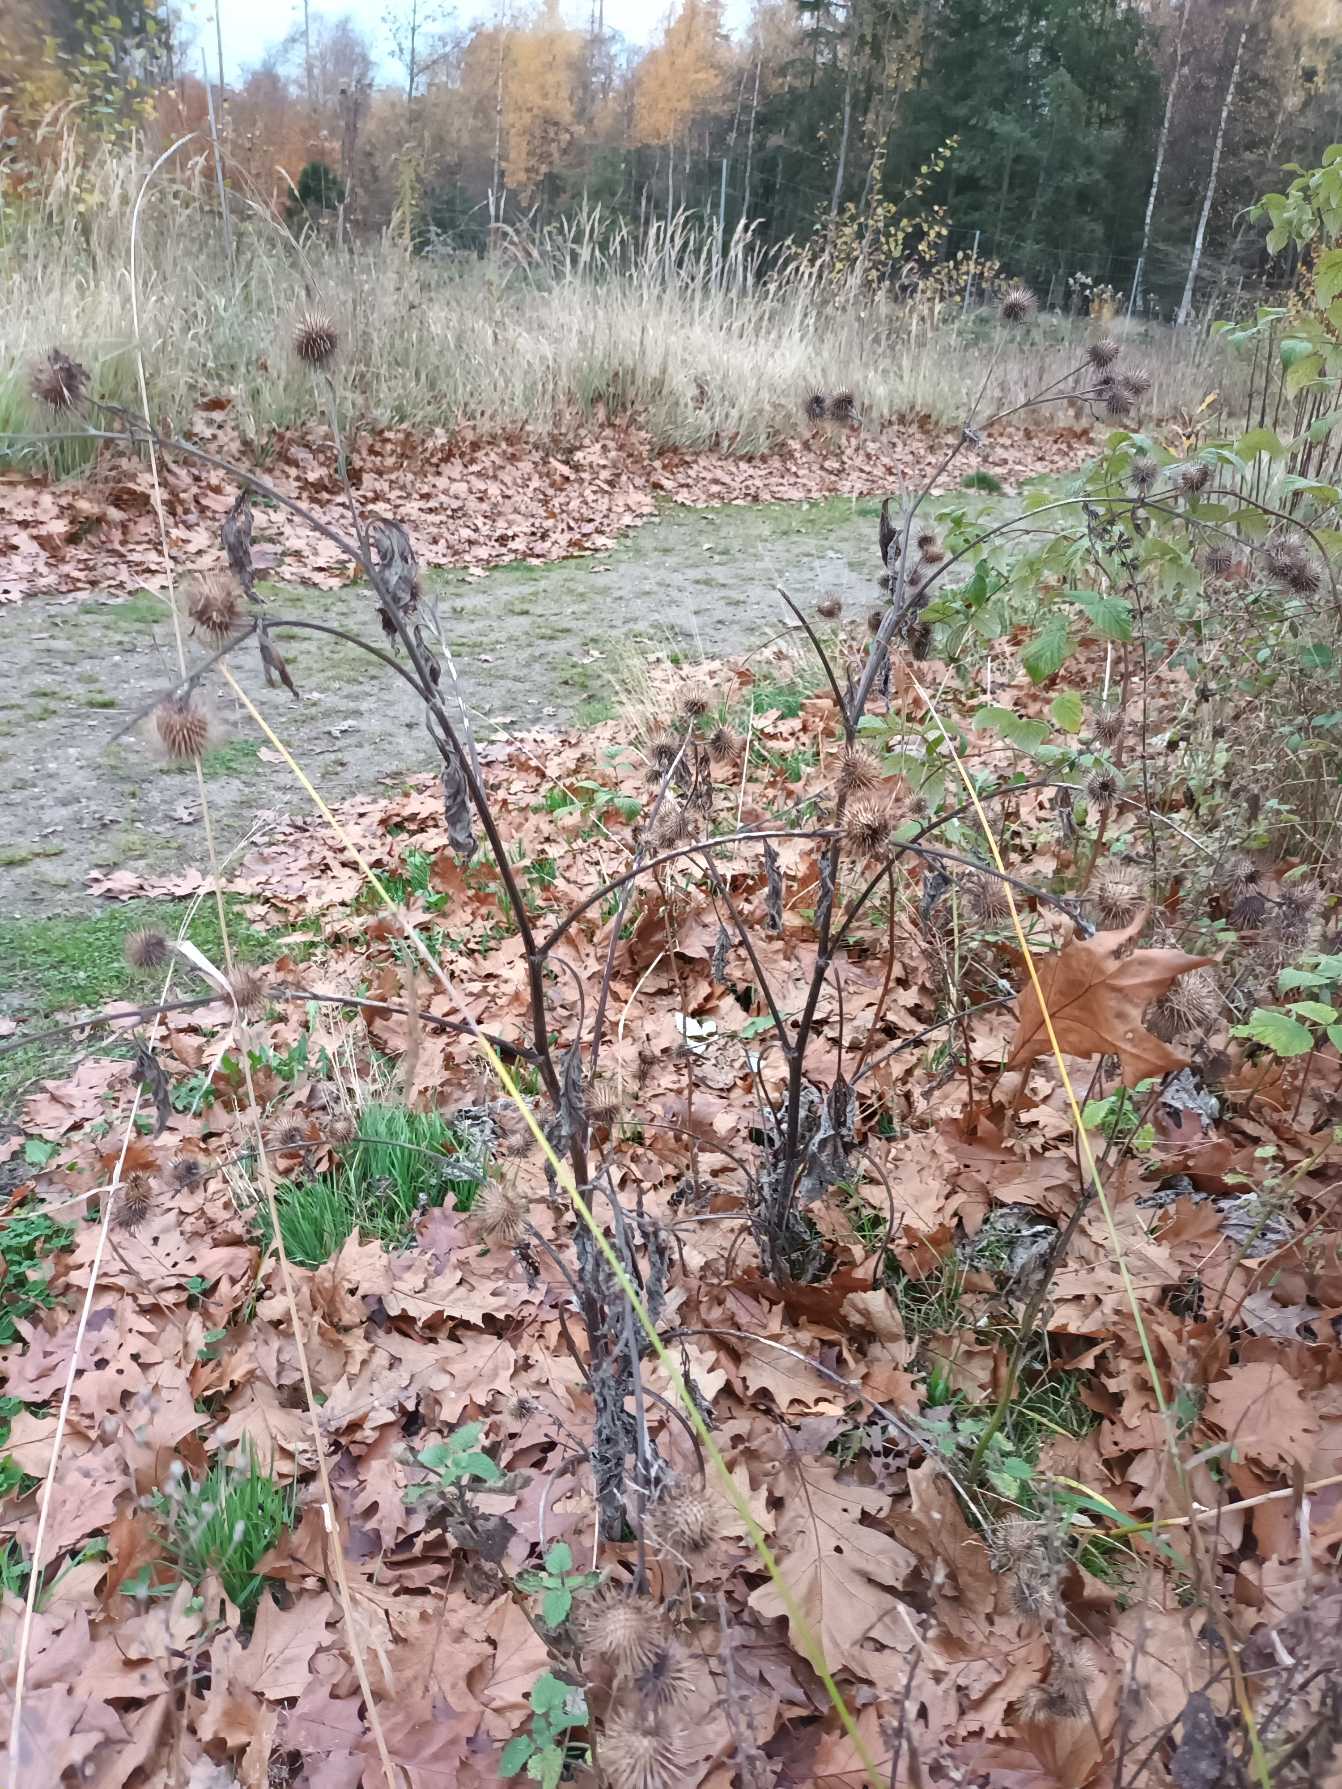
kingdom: Plantae
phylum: Tracheophyta
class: Magnoliopsida
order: Asterales
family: Asteraceae
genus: Arctium
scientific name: Arctium nemorosum
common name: Skov-burre
